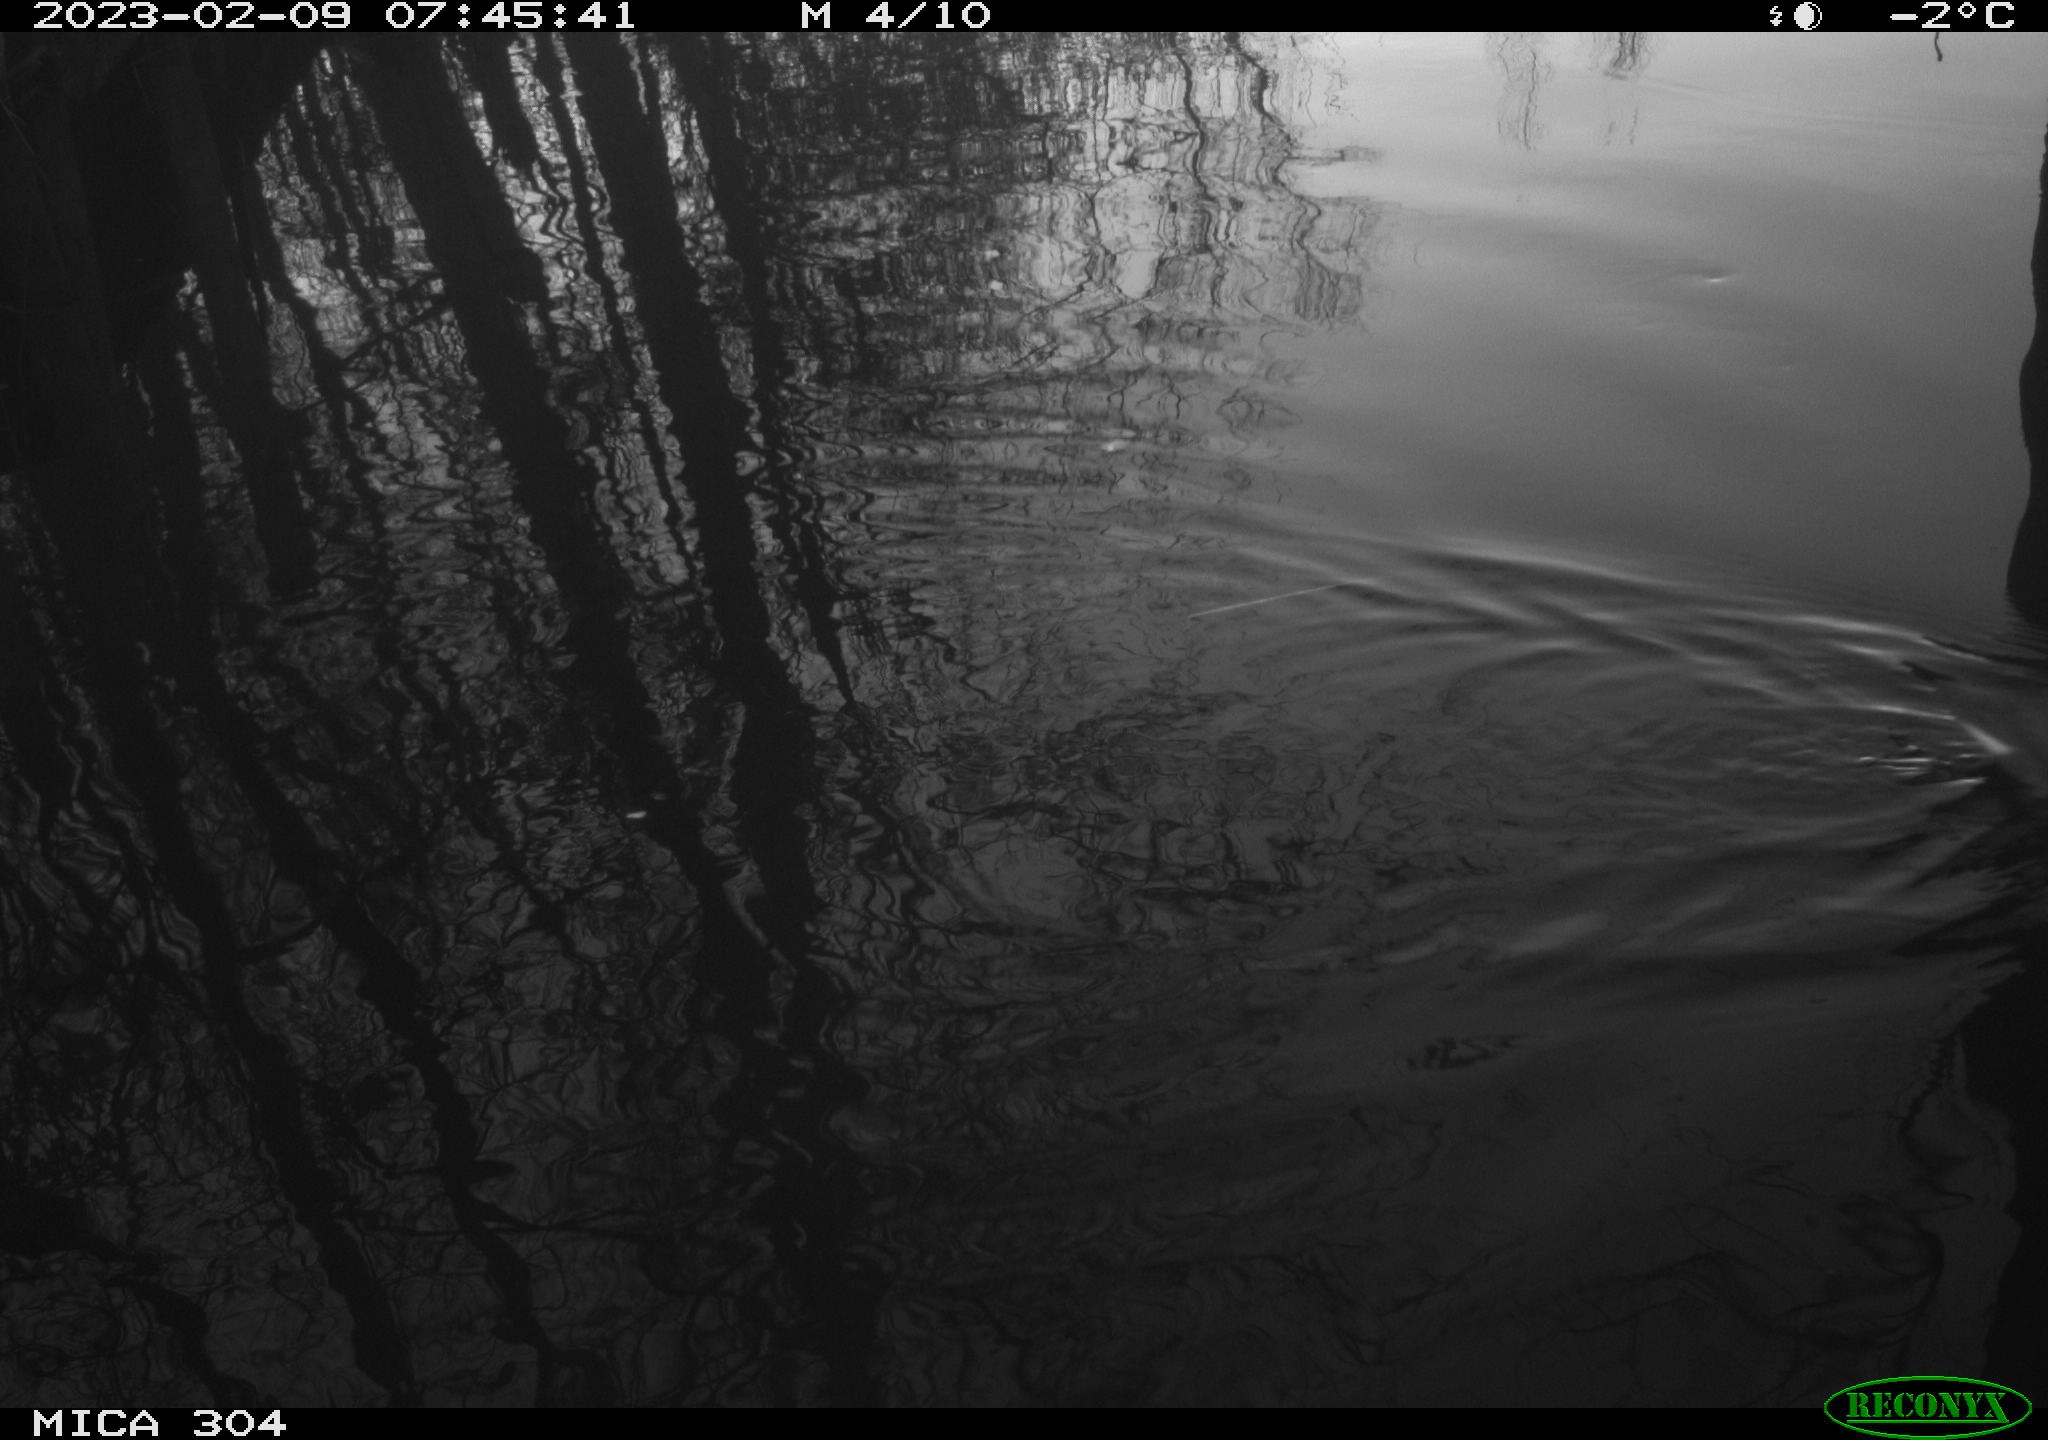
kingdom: Animalia
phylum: Chordata
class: Aves
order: Gruiformes
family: Rallidae
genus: Gallinula
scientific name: Gallinula chloropus
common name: Common moorhen
